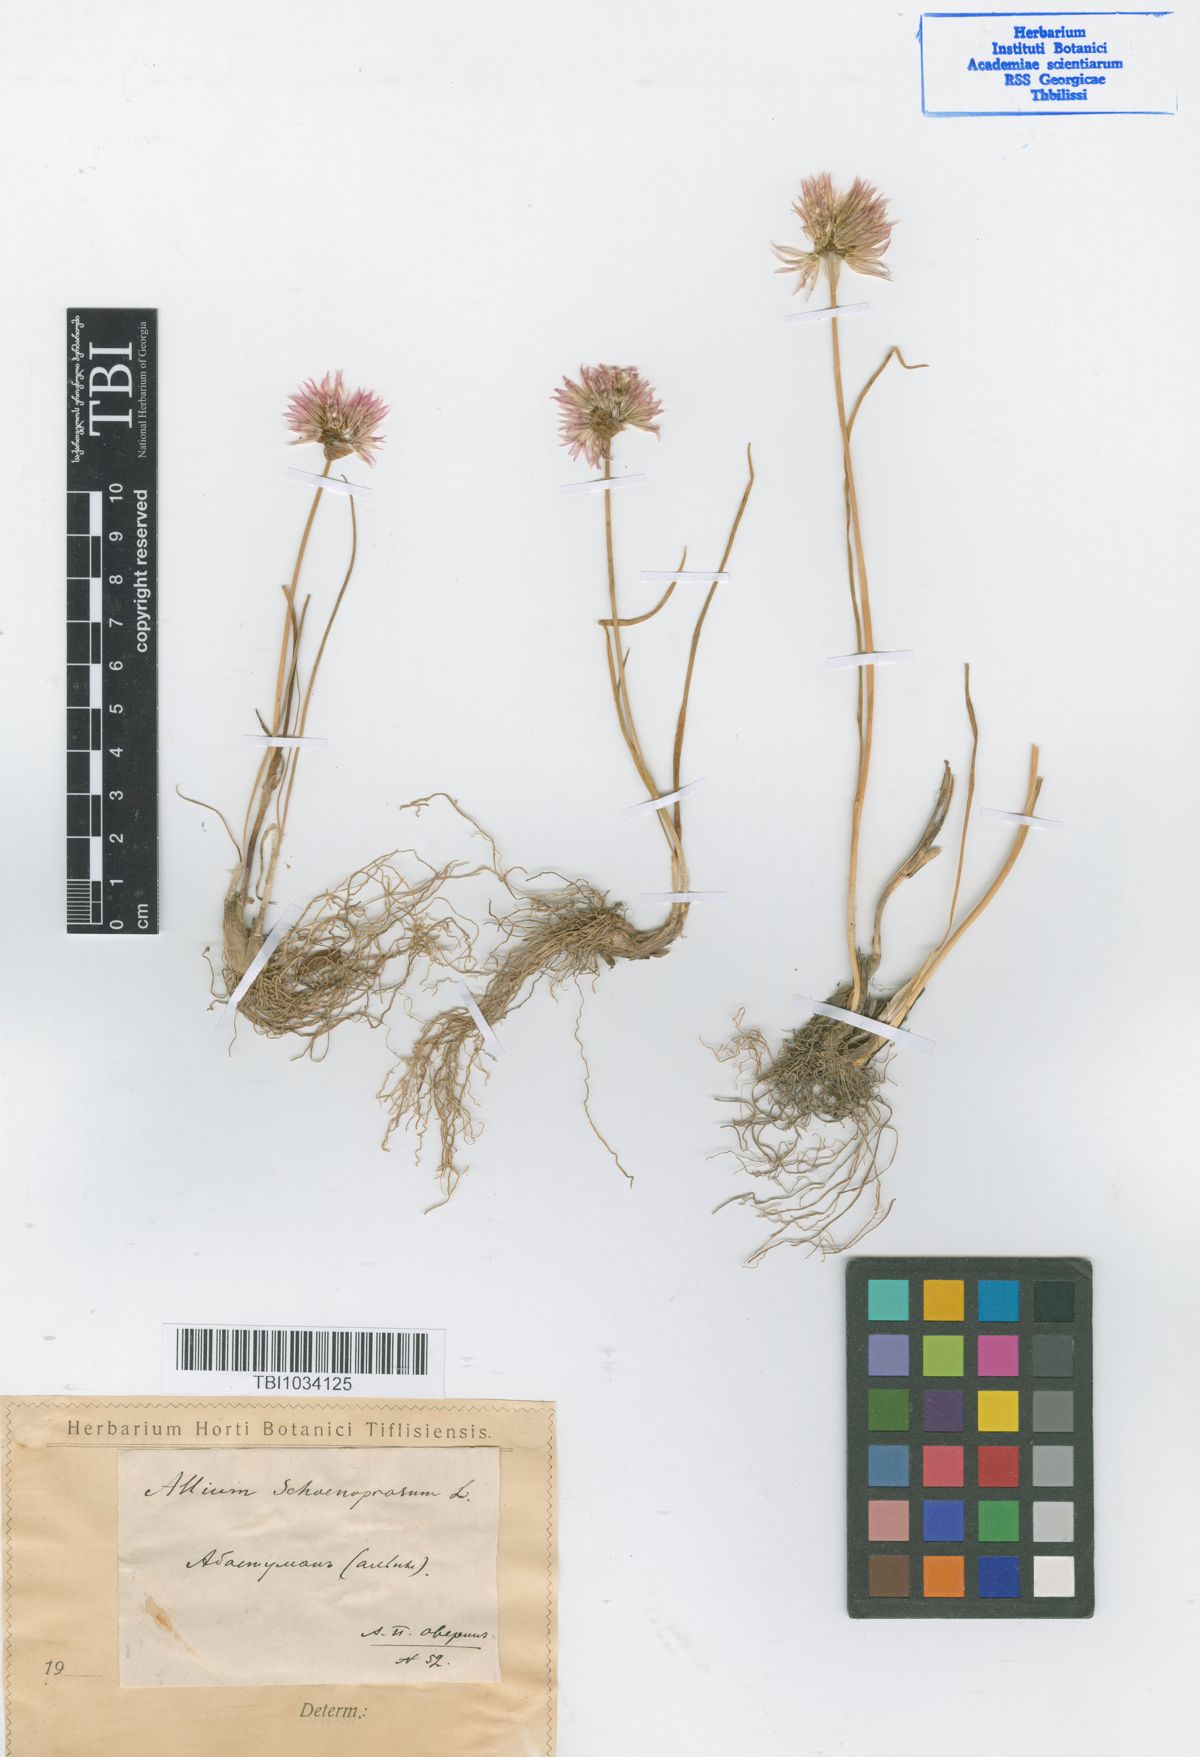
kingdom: Plantae
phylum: Tracheophyta
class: Liliopsida
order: Asparagales
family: Amaryllidaceae
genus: Allium
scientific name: Allium schoenoprasum
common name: Chives
